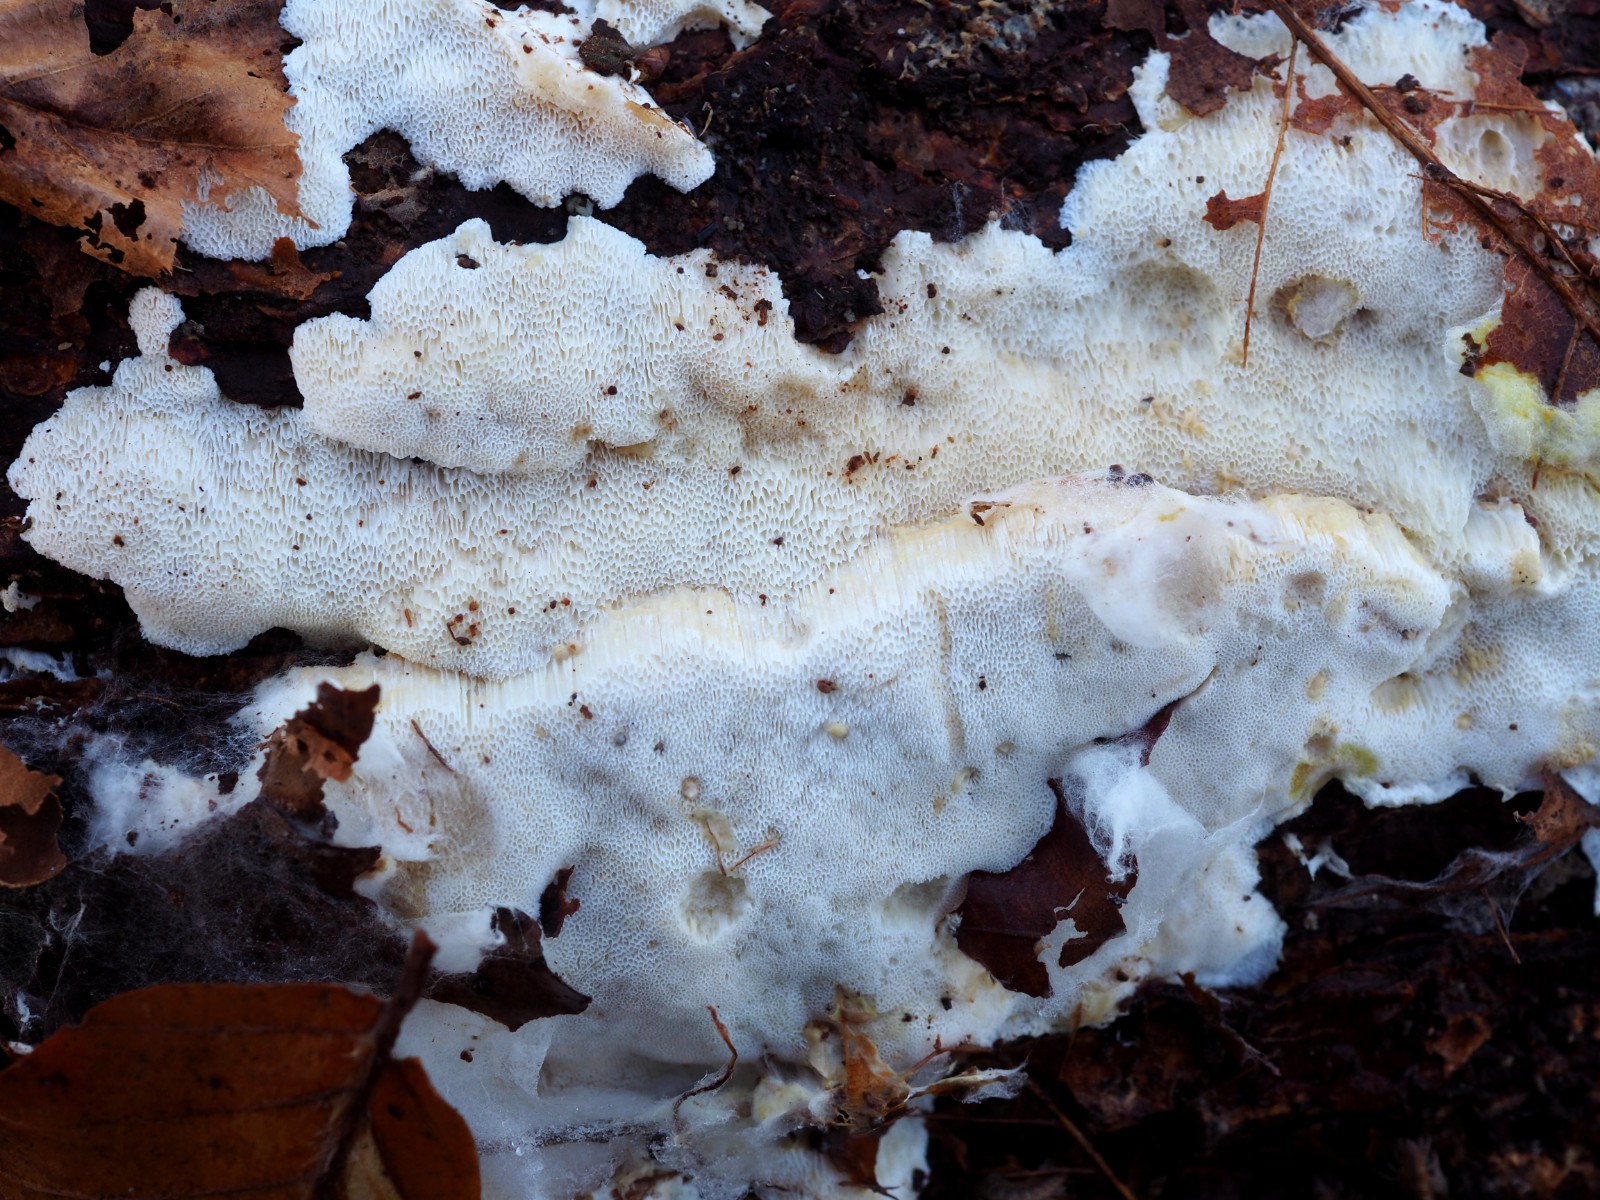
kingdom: Fungi
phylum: Basidiomycota
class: Agaricomycetes
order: Polyporales
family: Polyporaceae
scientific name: Polyporaceae
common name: poresvampfamilien
